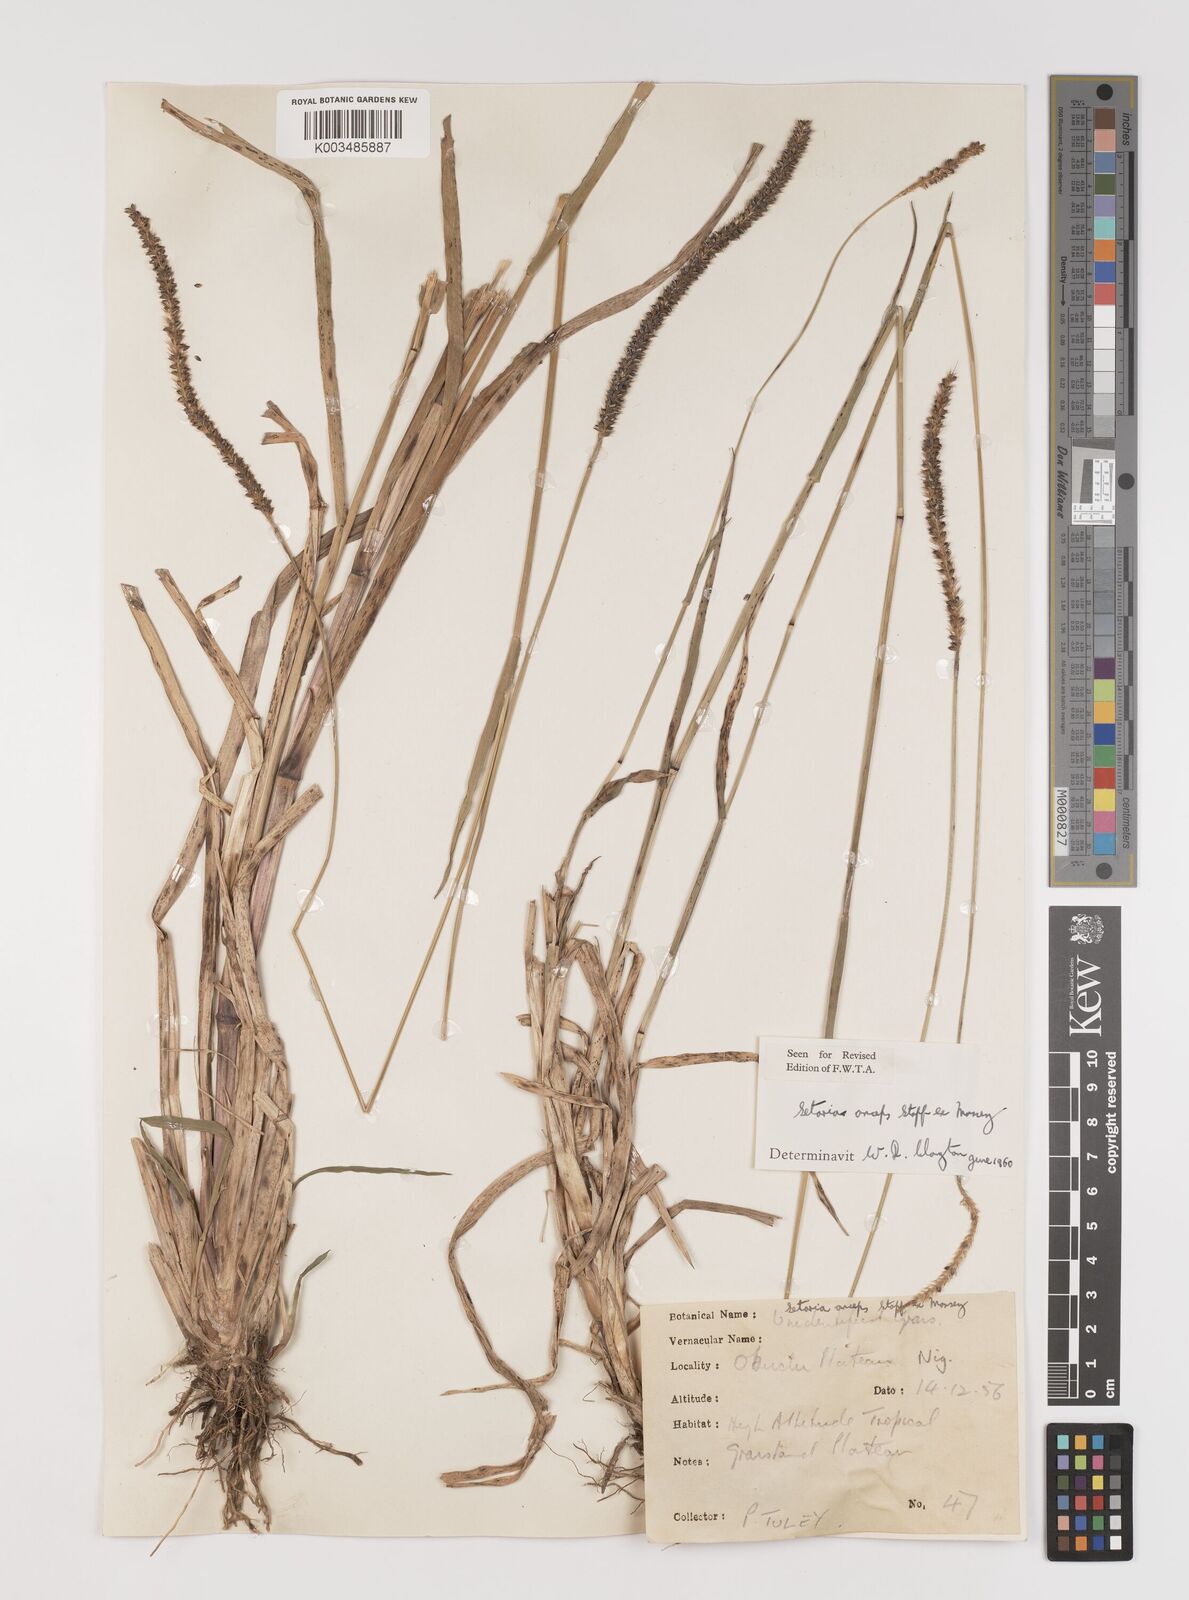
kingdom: Plantae
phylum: Tracheophyta
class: Liliopsida
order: Poales
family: Poaceae
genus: Setaria
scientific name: Setaria sphacelata
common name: African bristlegrass
